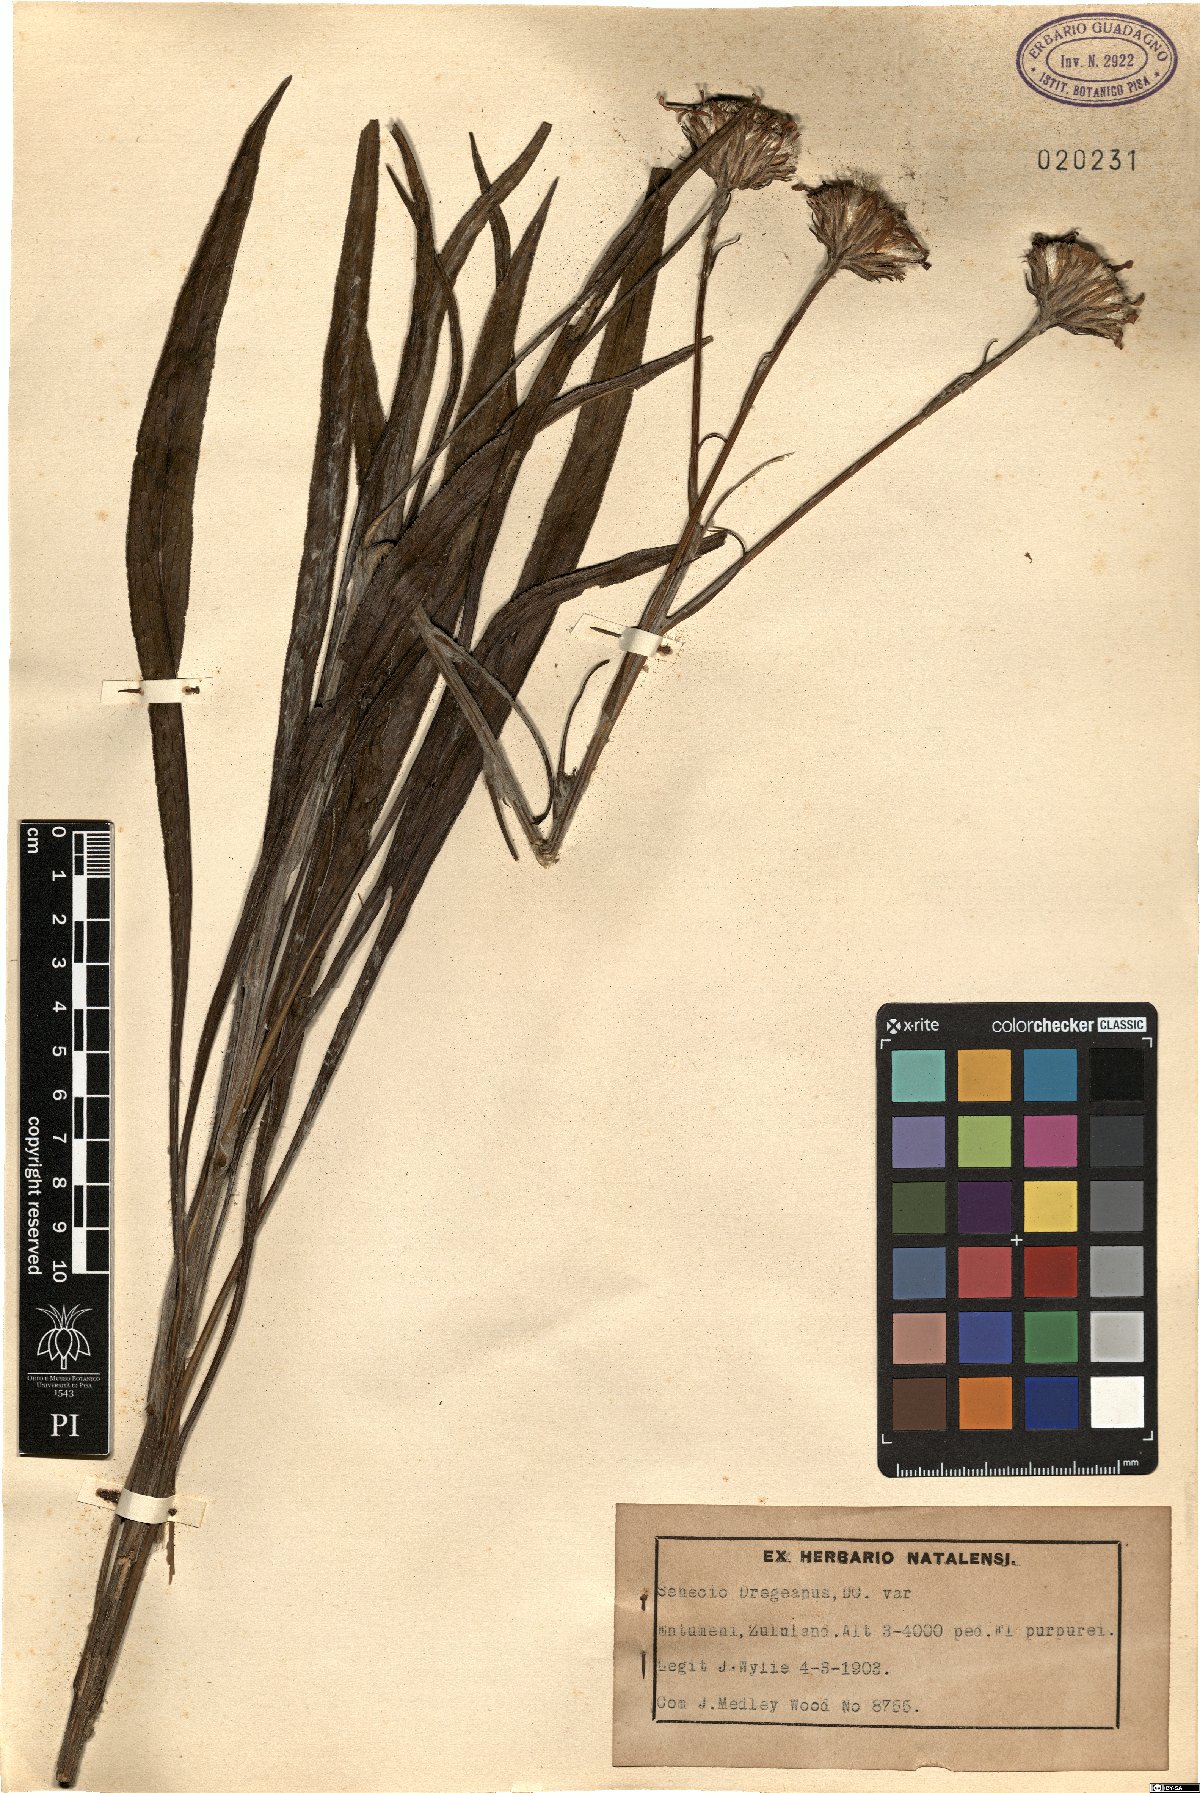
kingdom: Plantae
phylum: Tracheophyta
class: Magnoliopsida
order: Asterales
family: Asteraceae
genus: Senecio
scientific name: Senecio dregeanus
